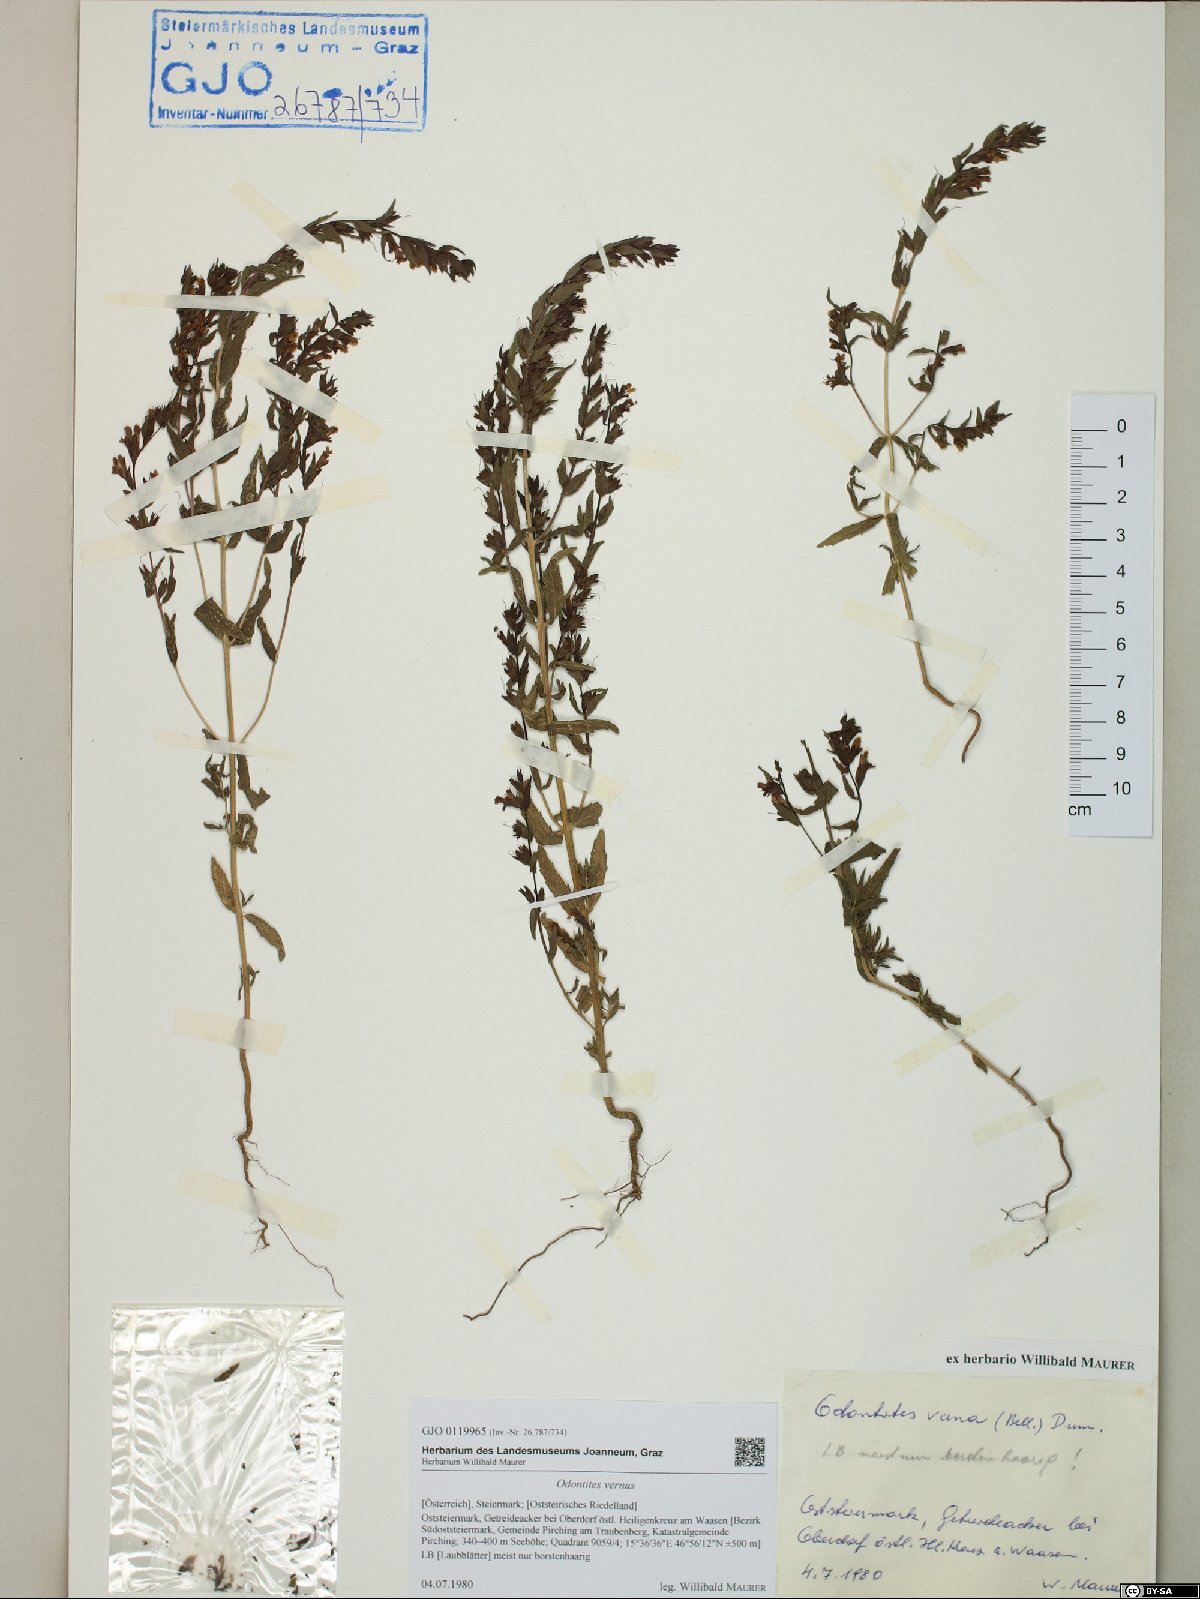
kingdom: Plantae
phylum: Tracheophyta
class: Magnoliopsida
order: Lamiales
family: Orobanchaceae
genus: Odontites
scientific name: Odontites vernus
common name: Red bartsia
